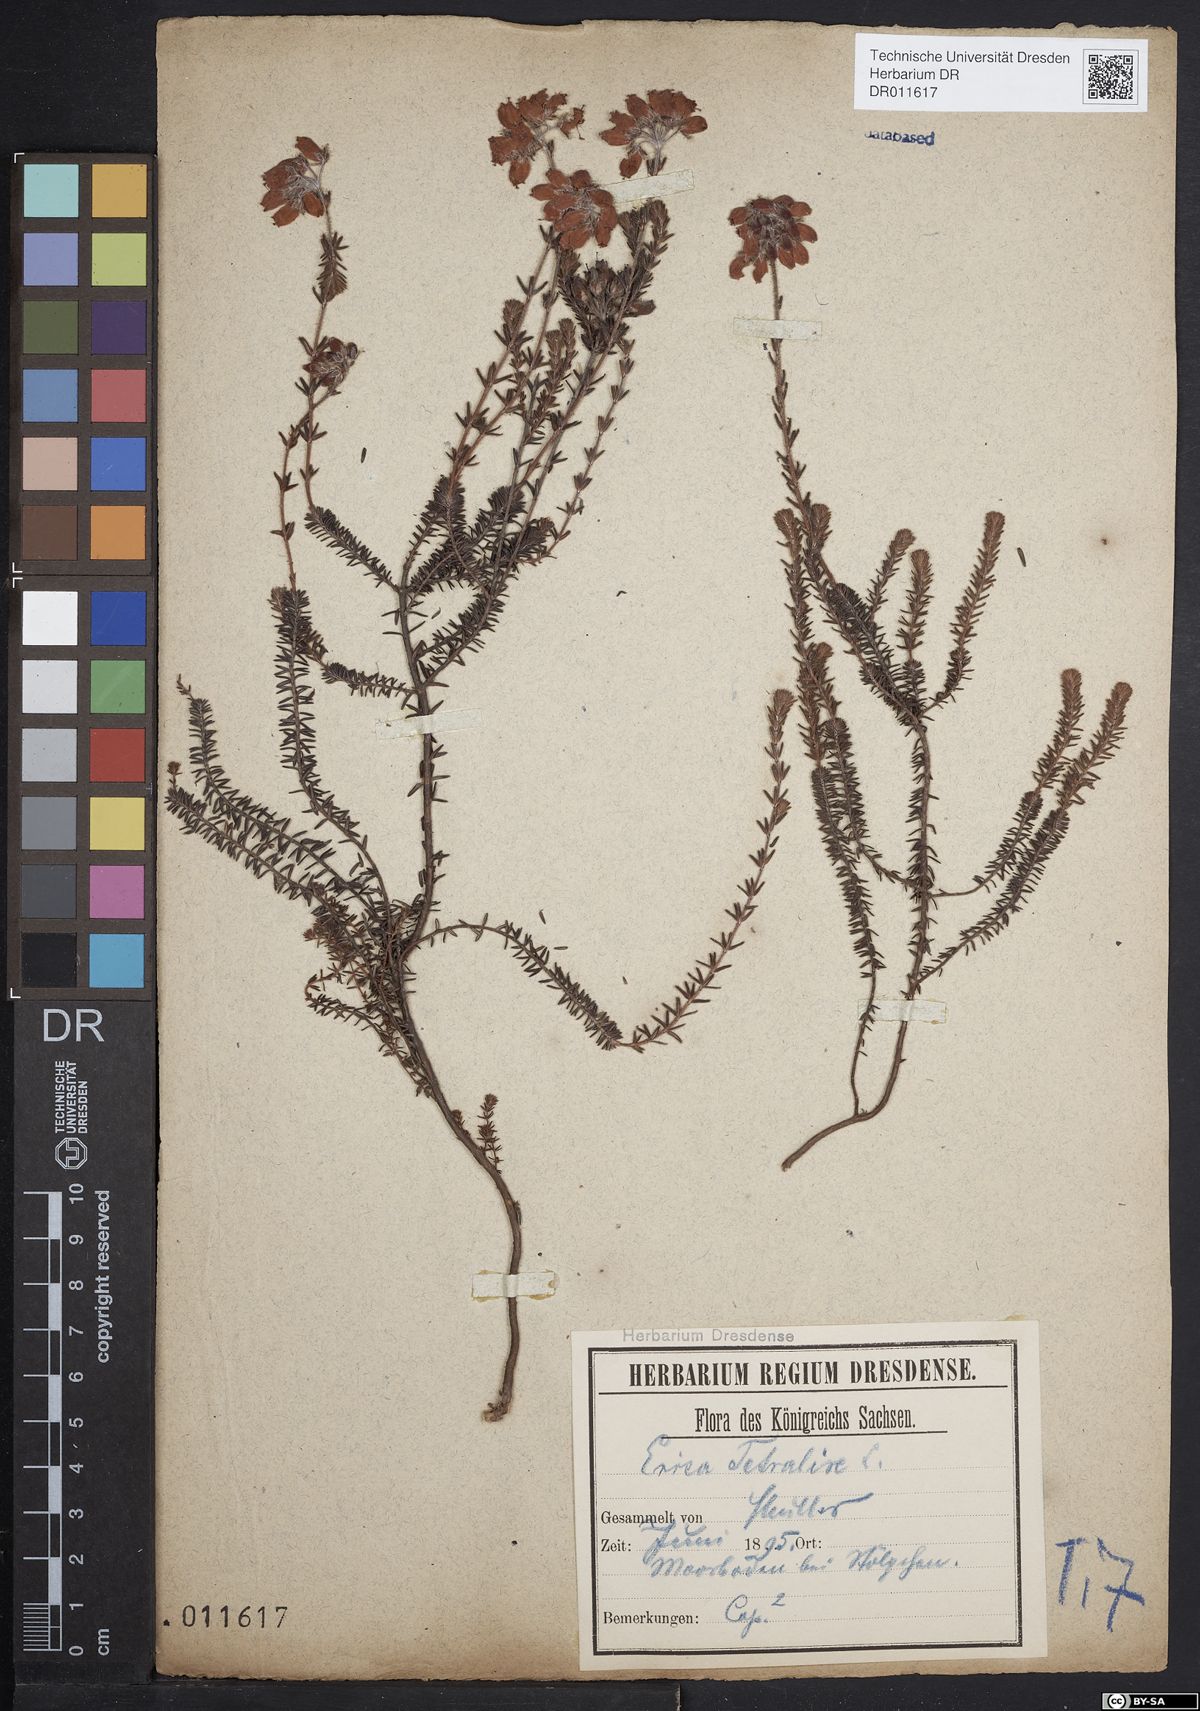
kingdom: Plantae
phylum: Tracheophyta
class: Magnoliopsida
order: Ericales
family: Ericaceae
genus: Erica
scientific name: Erica tetralix
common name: Cross-leaved heath
